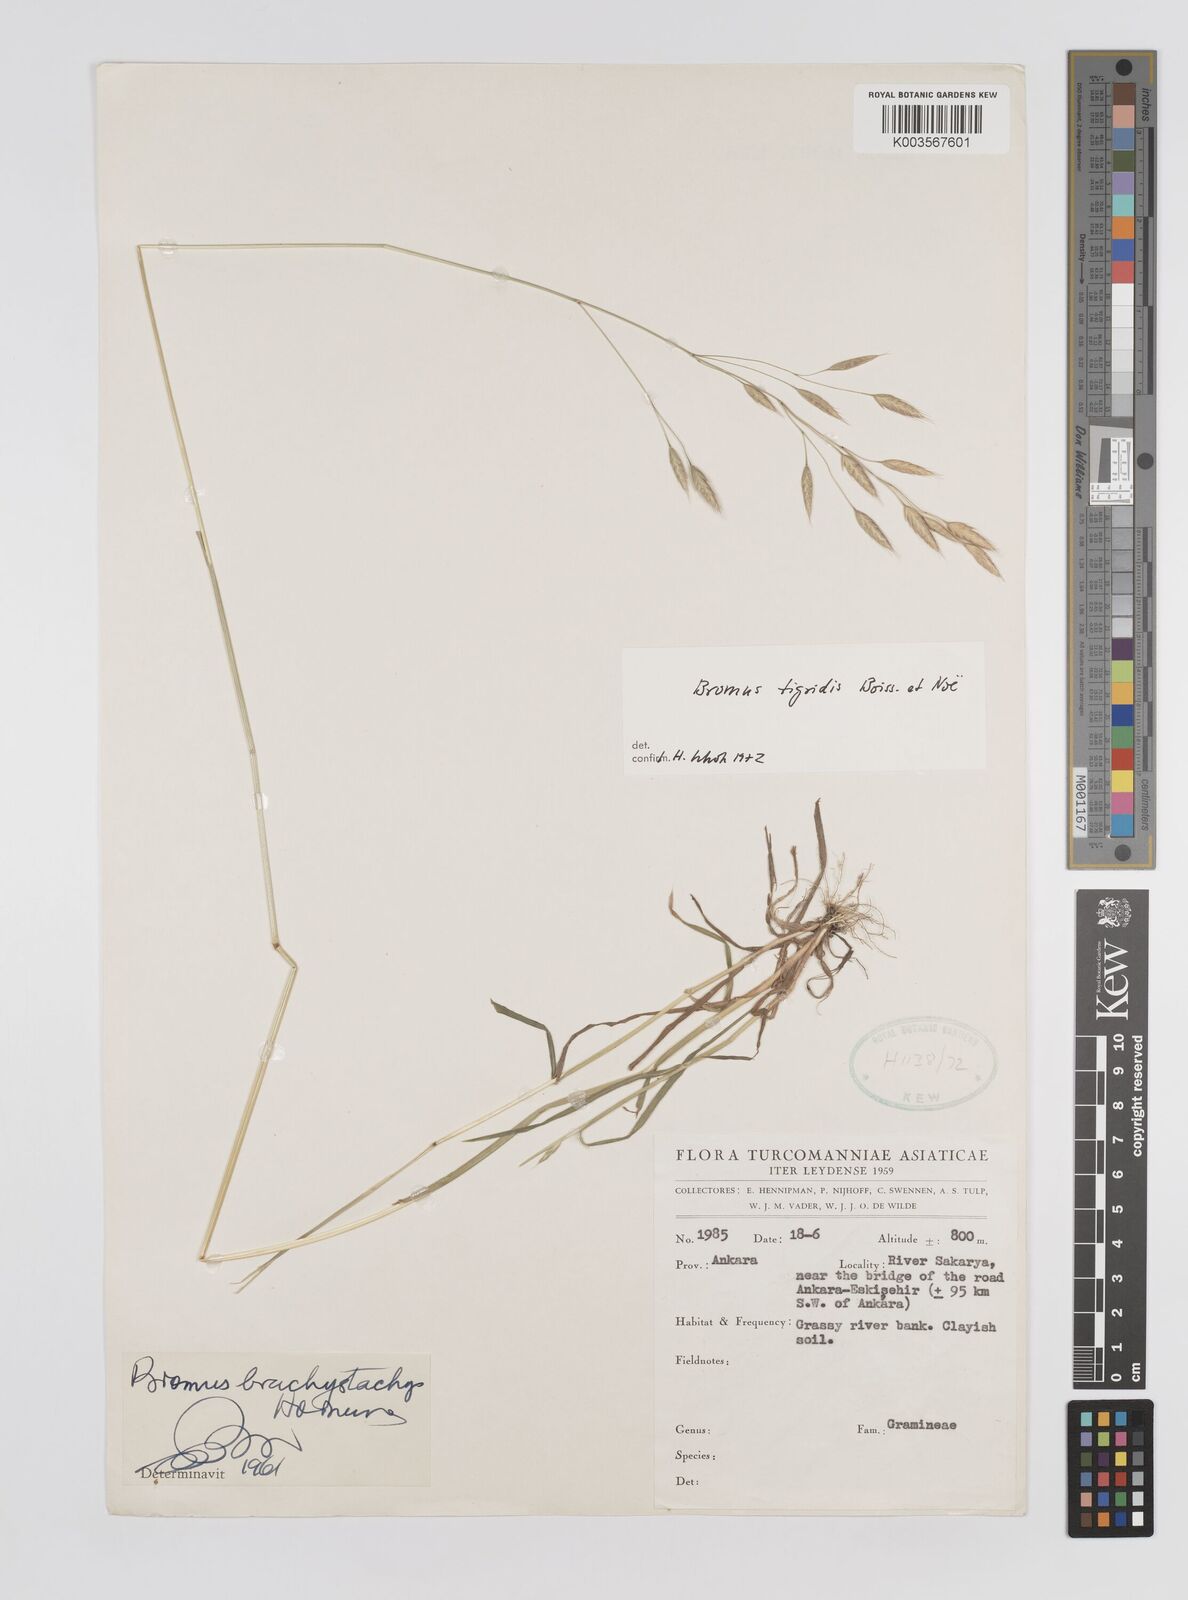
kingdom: Plantae
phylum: Tracheophyta
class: Liliopsida
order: Poales
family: Poaceae
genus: Bromus
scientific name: Bromus brachystachys
